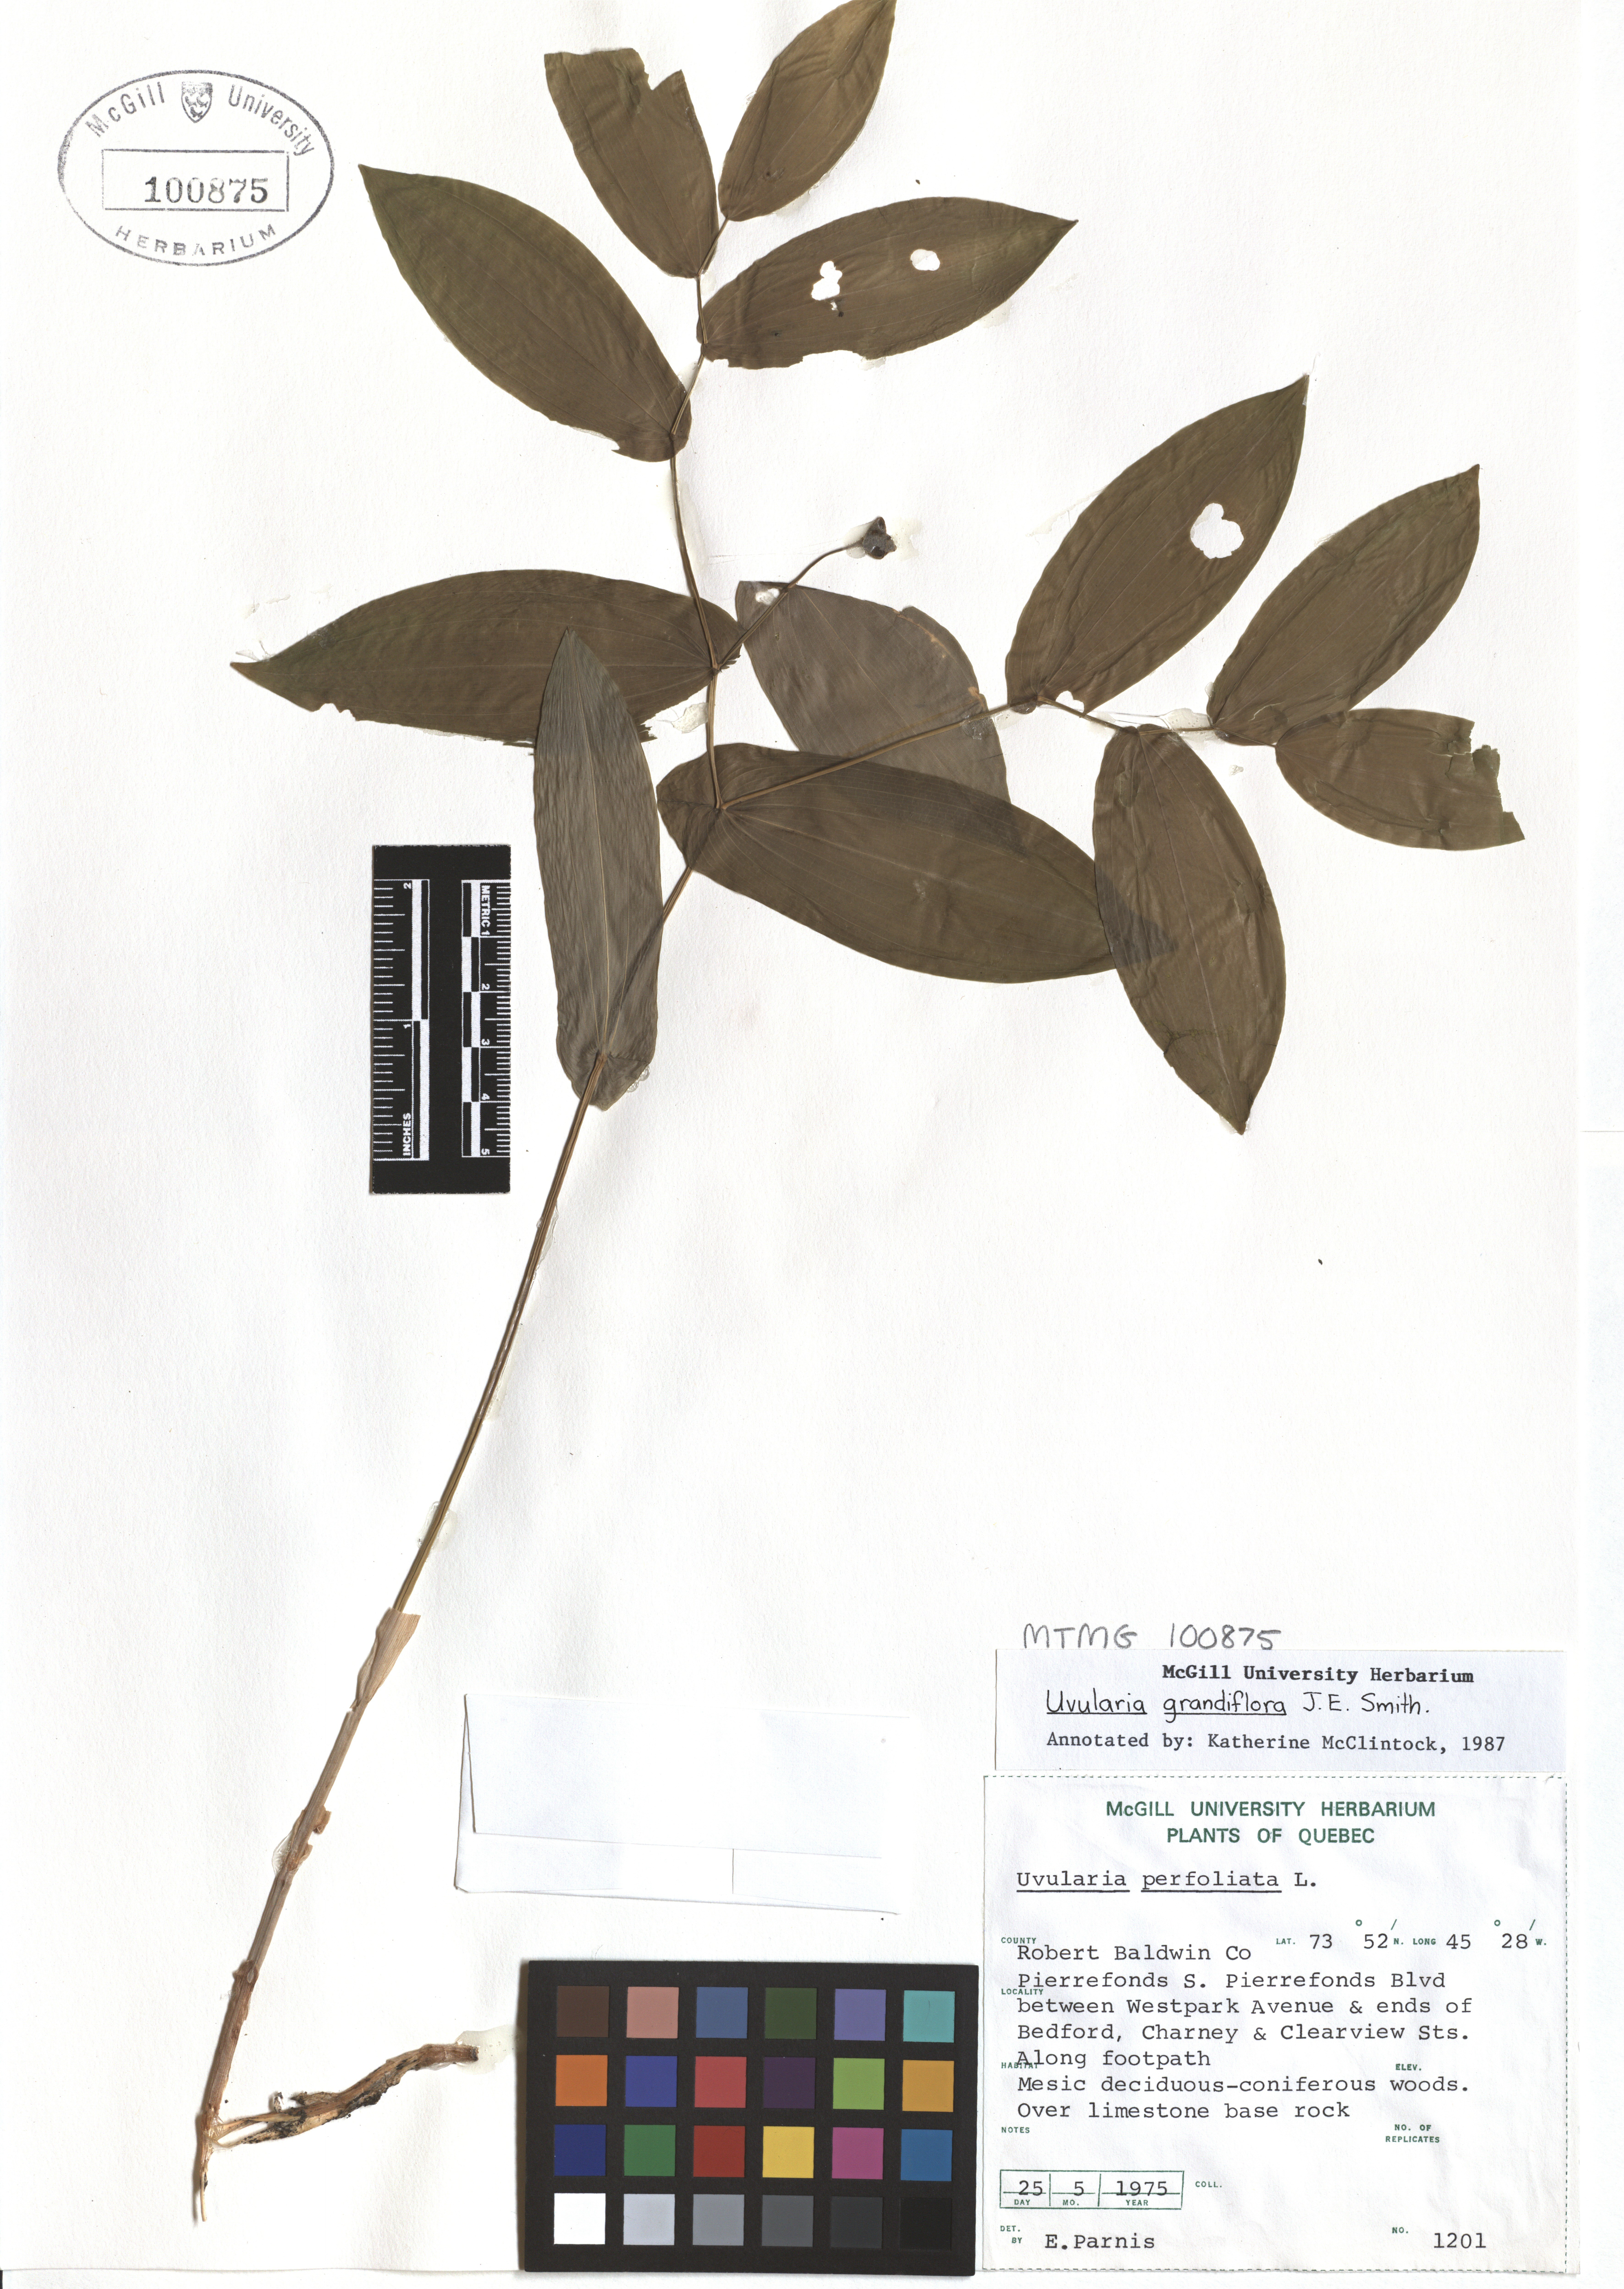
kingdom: Plantae
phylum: Tracheophyta
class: Liliopsida
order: Liliales
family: Colchicaceae
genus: Uvularia
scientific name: Uvularia grandiflora
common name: Bellwort
